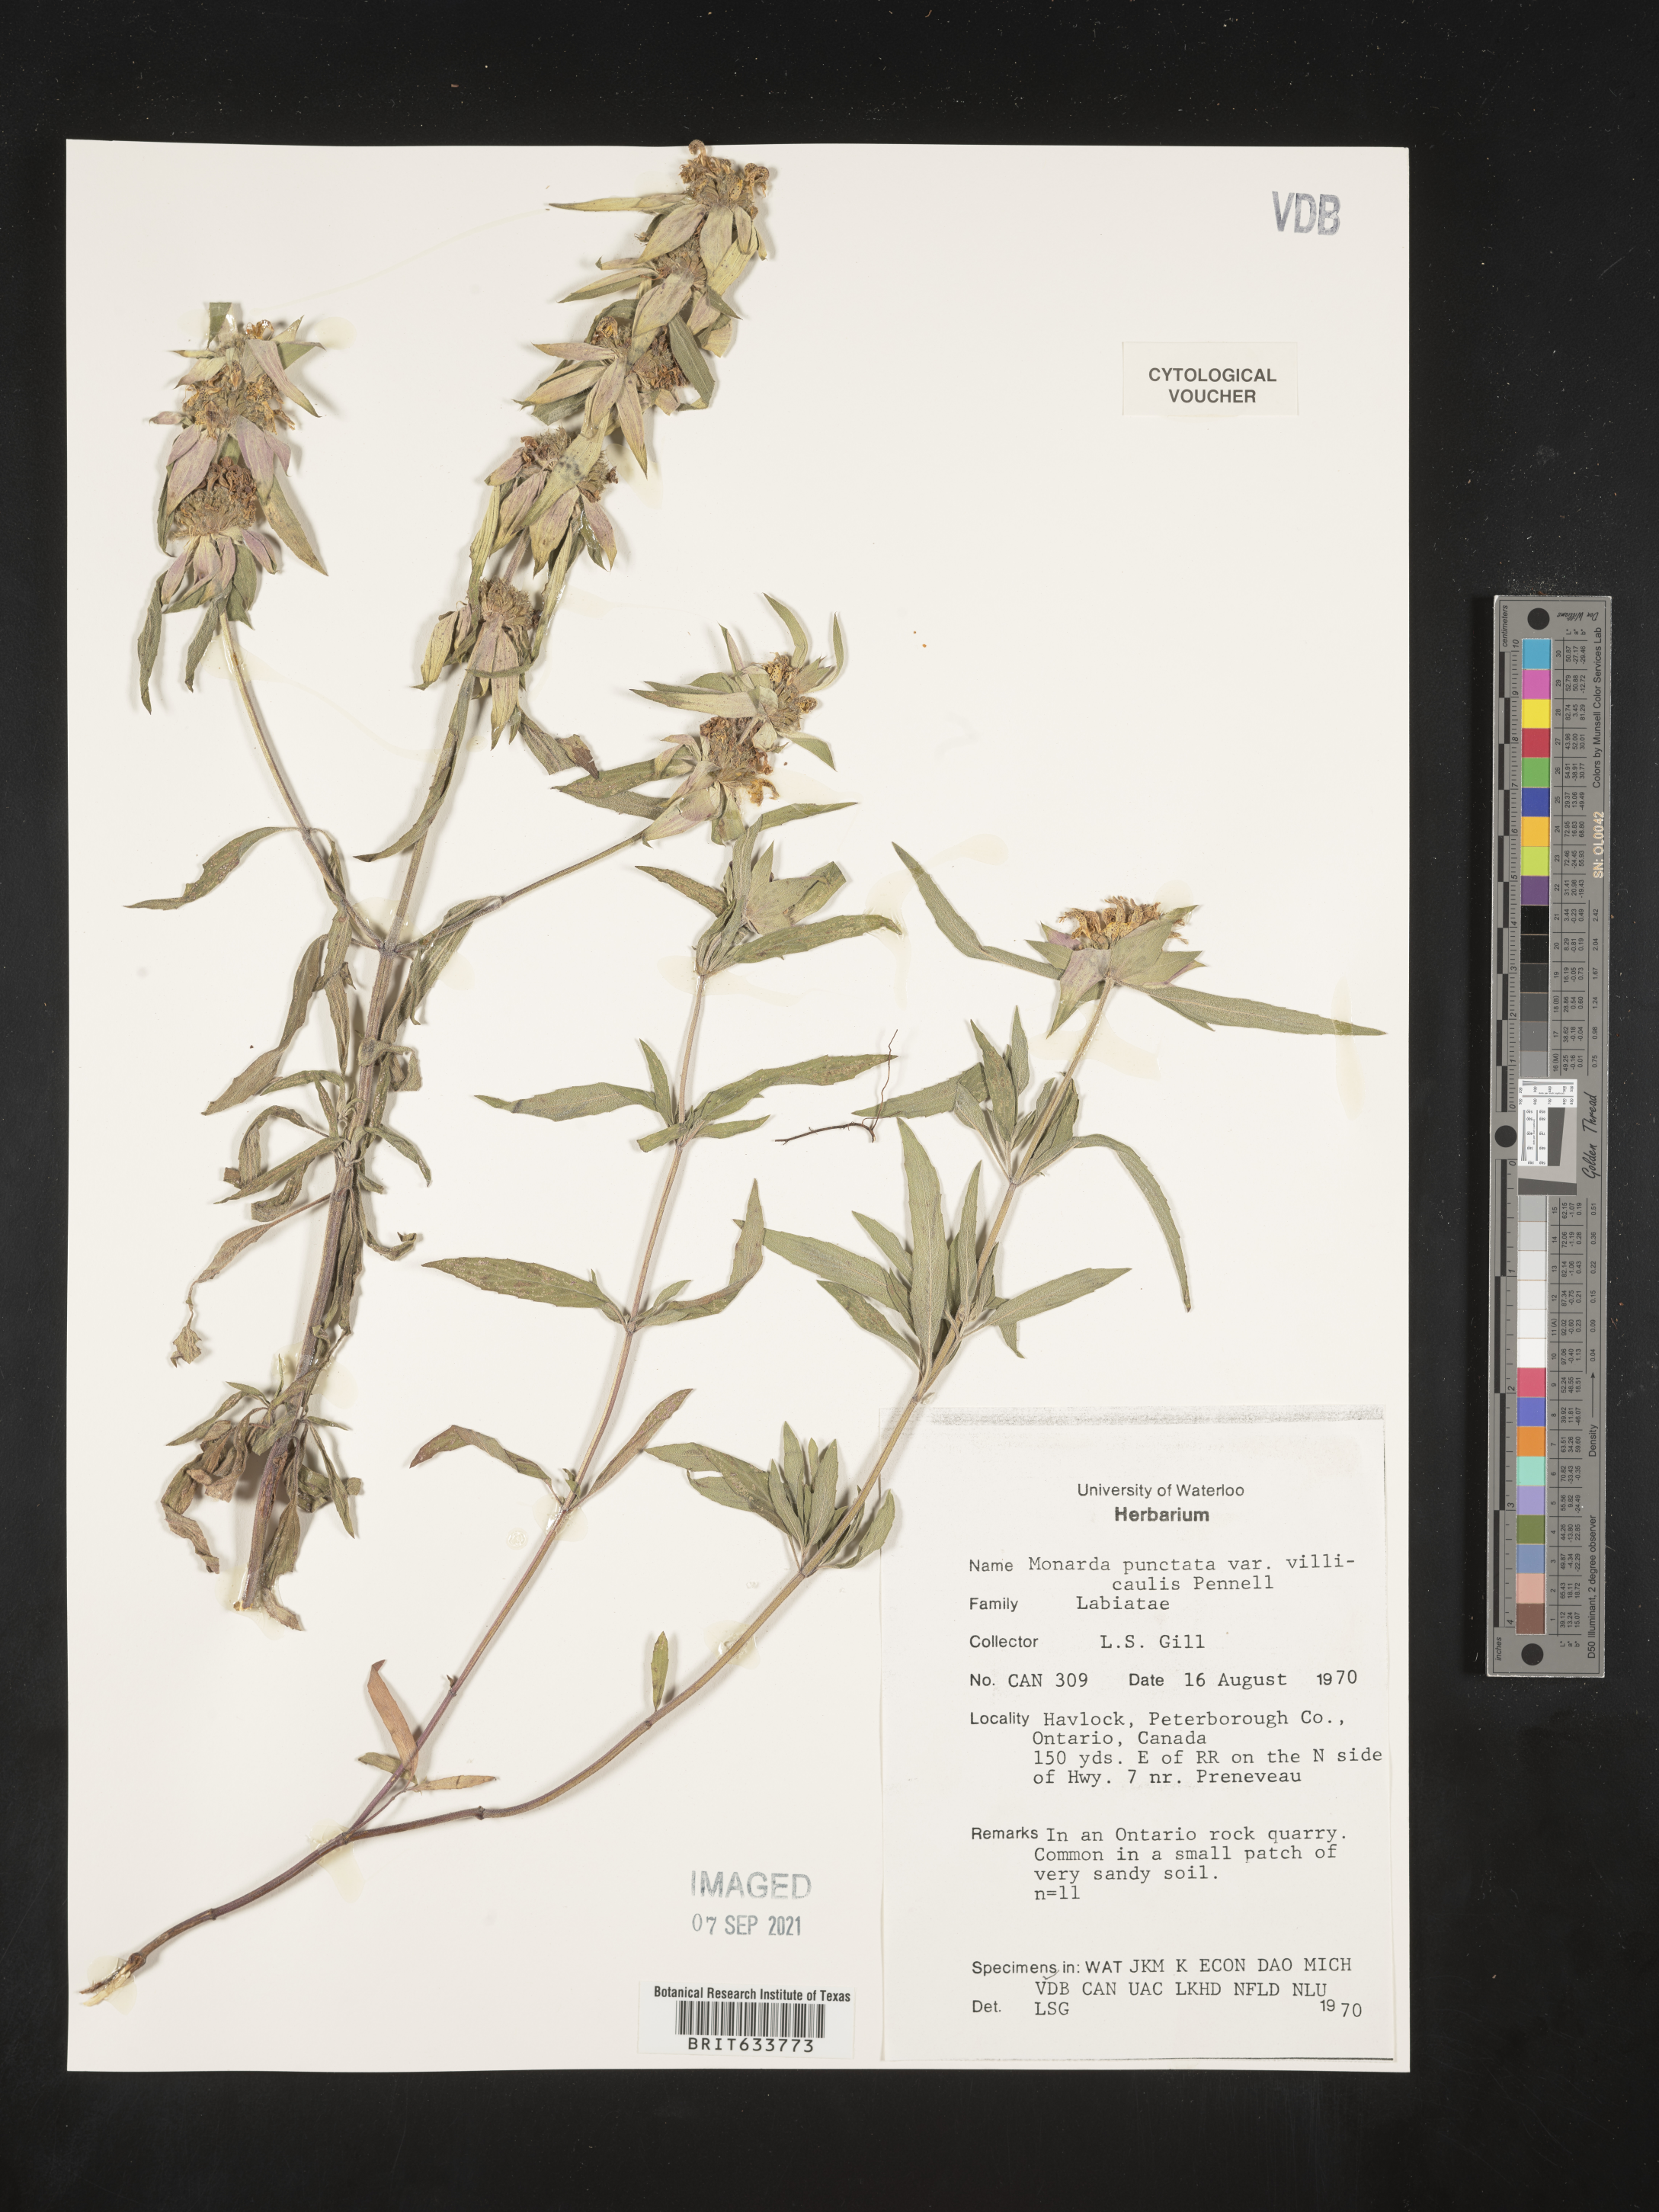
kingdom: Plantae
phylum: Tracheophyta
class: Magnoliopsida
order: Lamiales
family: Lamiaceae
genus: Monarda
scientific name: Monarda punctata
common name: Dotted monarda
